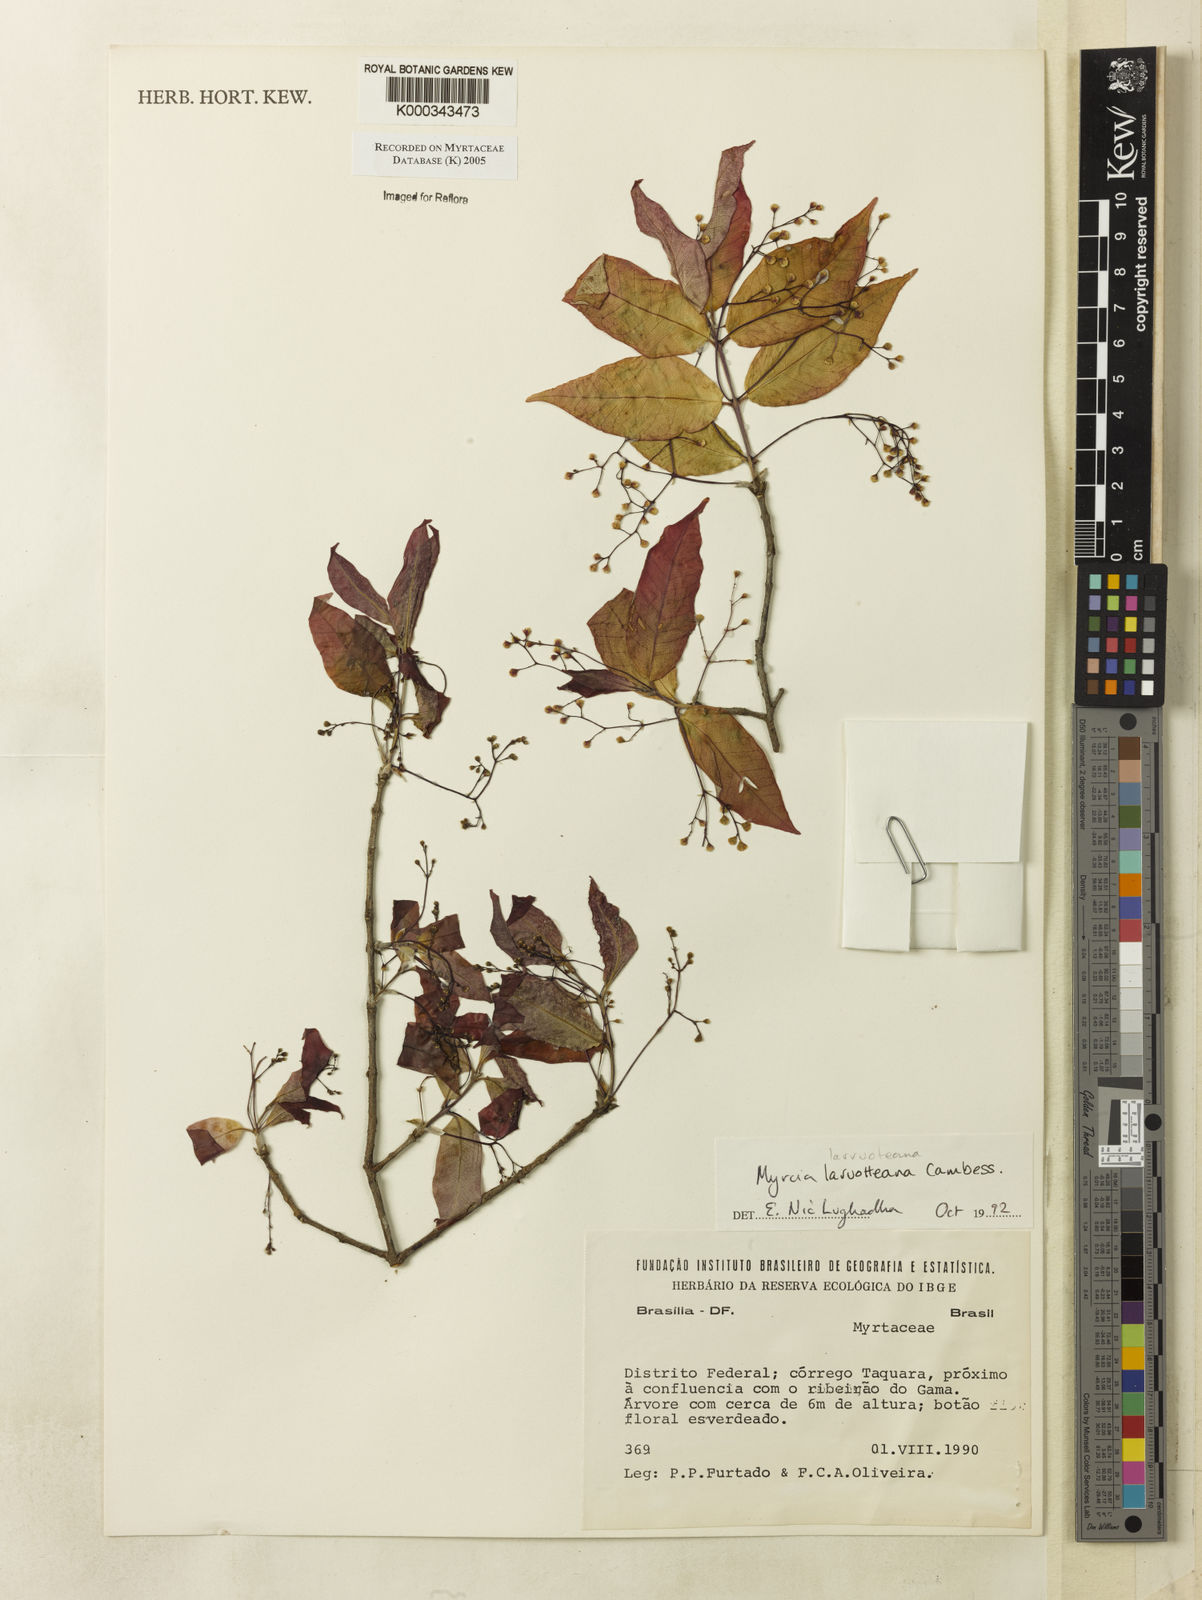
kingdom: Plantae
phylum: Tracheophyta
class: Magnoliopsida
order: Myrtales
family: Myrtaceae
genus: Myrcia
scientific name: Myrcia laruotteana
